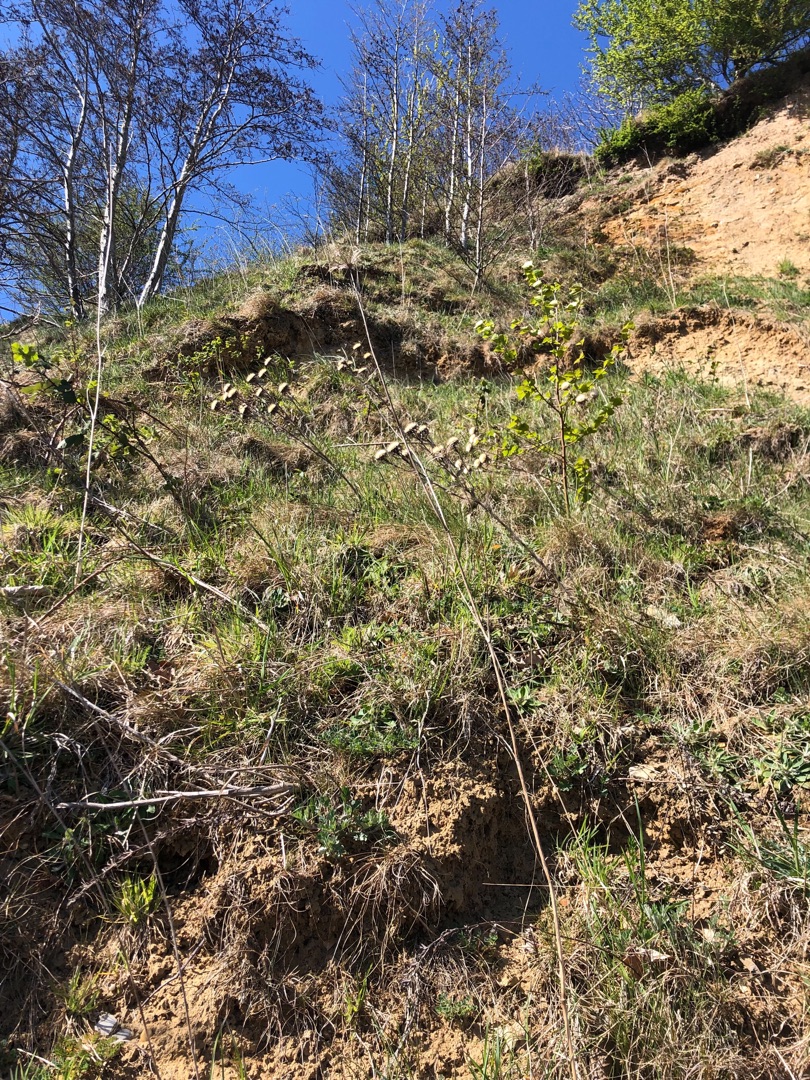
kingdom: Plantae
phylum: Tracheophyta
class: Magnoliopsida
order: Asterales
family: Asteraceae
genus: Carlina
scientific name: Carlina vulgaris
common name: Bakketidsel
